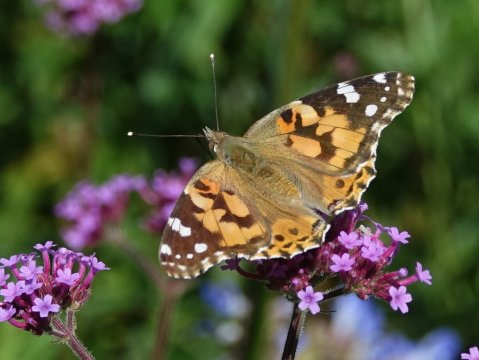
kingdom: Animalia
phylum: Arthropoda
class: Insecta
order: Lepidoptera
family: Nymphalidae
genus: Vanessa
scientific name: Vanessa cardui
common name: Painted Lady
